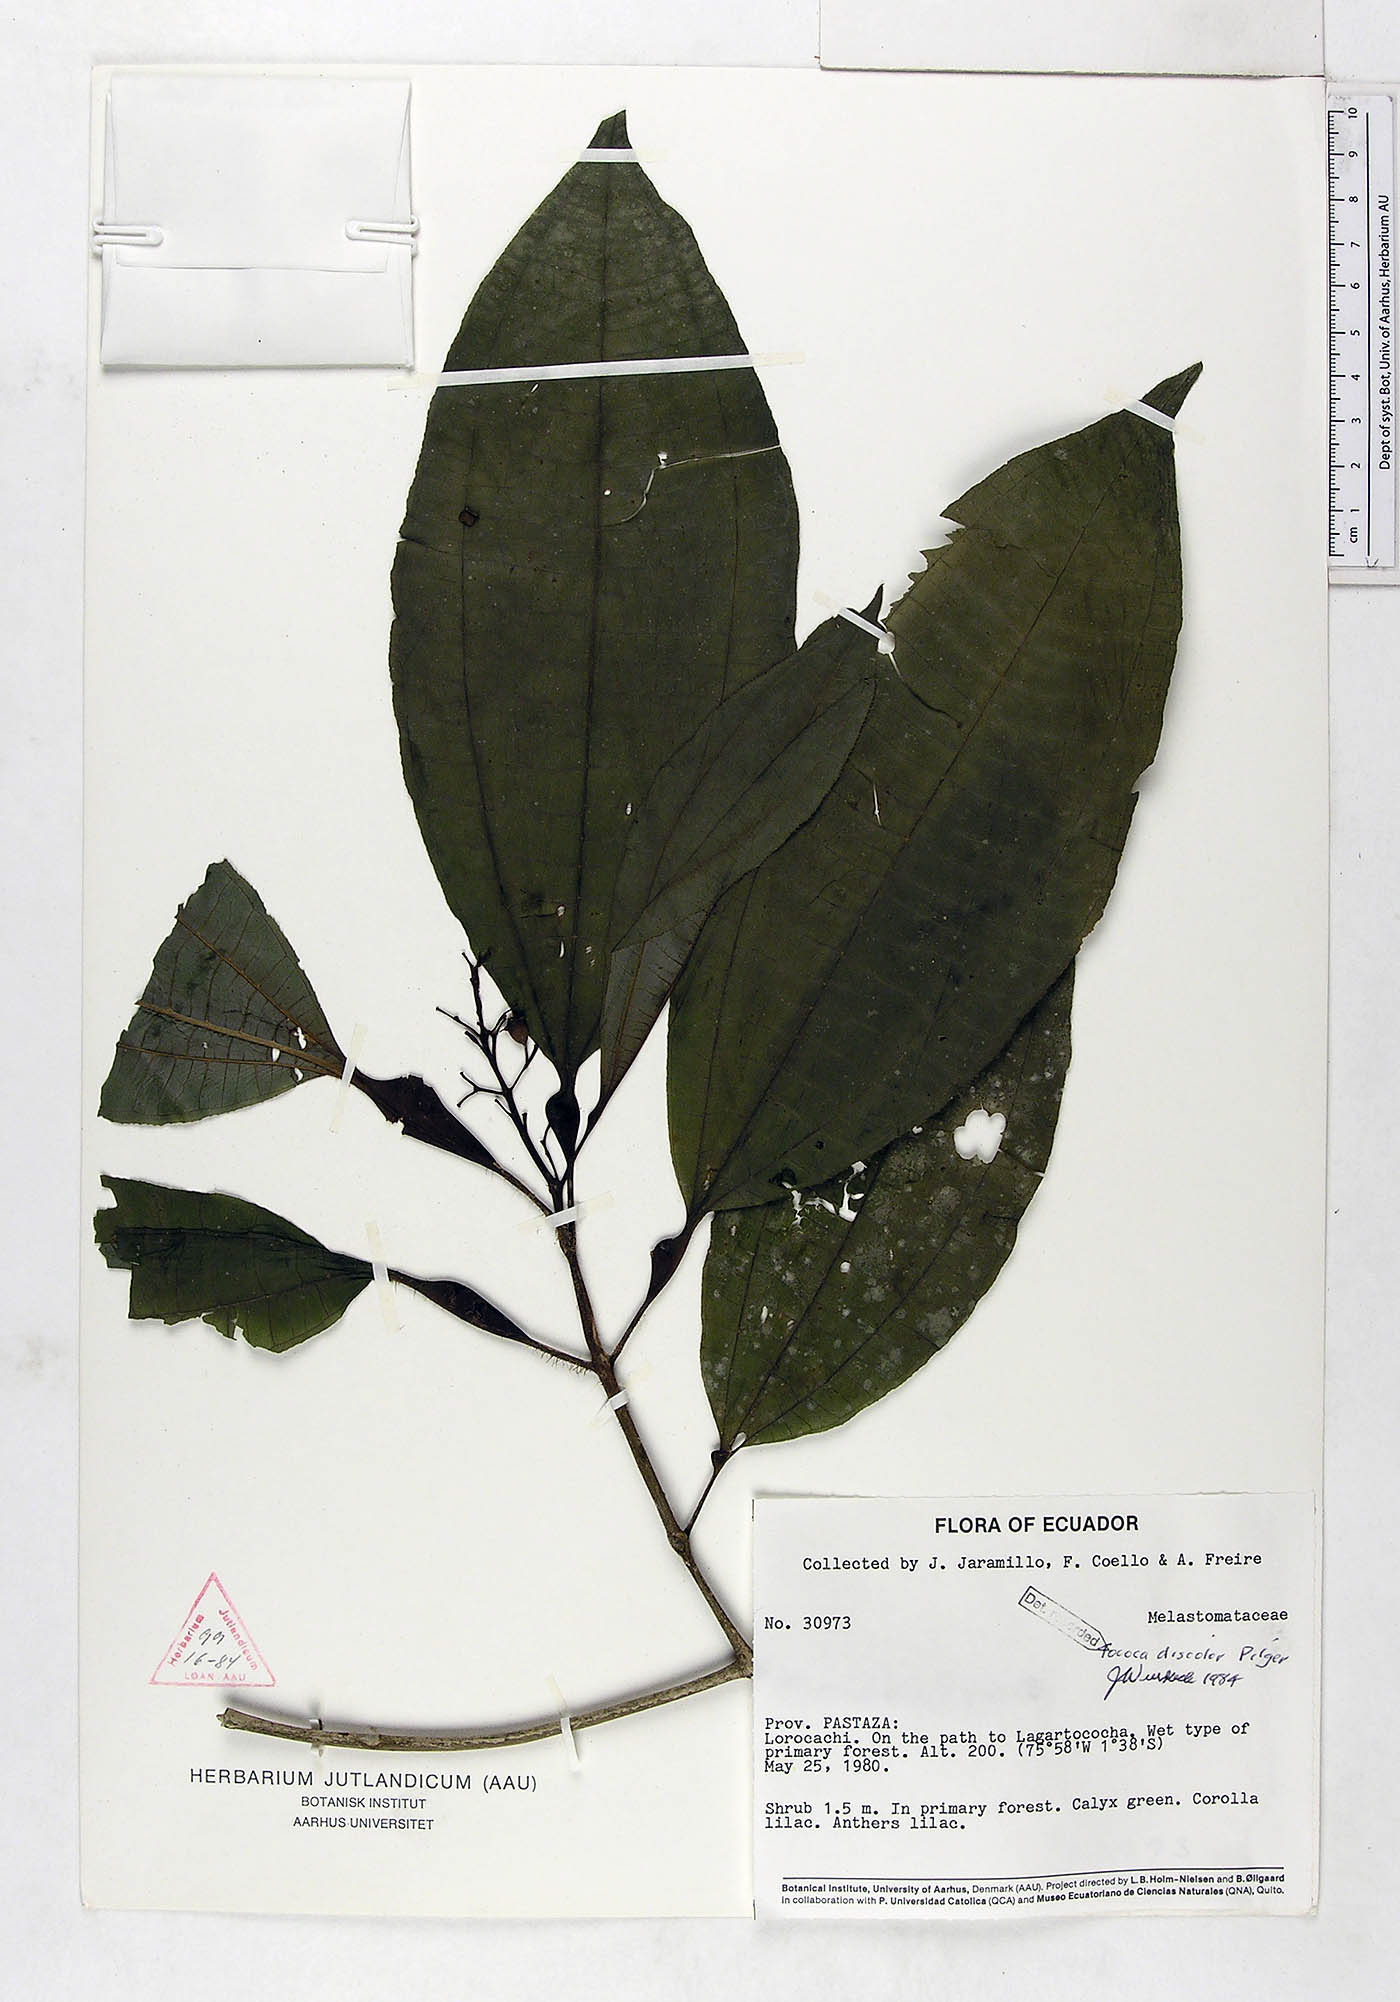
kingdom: Plantae
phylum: Tracheophyta
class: Magnoliopsida
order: Myrtales
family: Melastomataceae
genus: Miconia
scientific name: Miconia tococa
